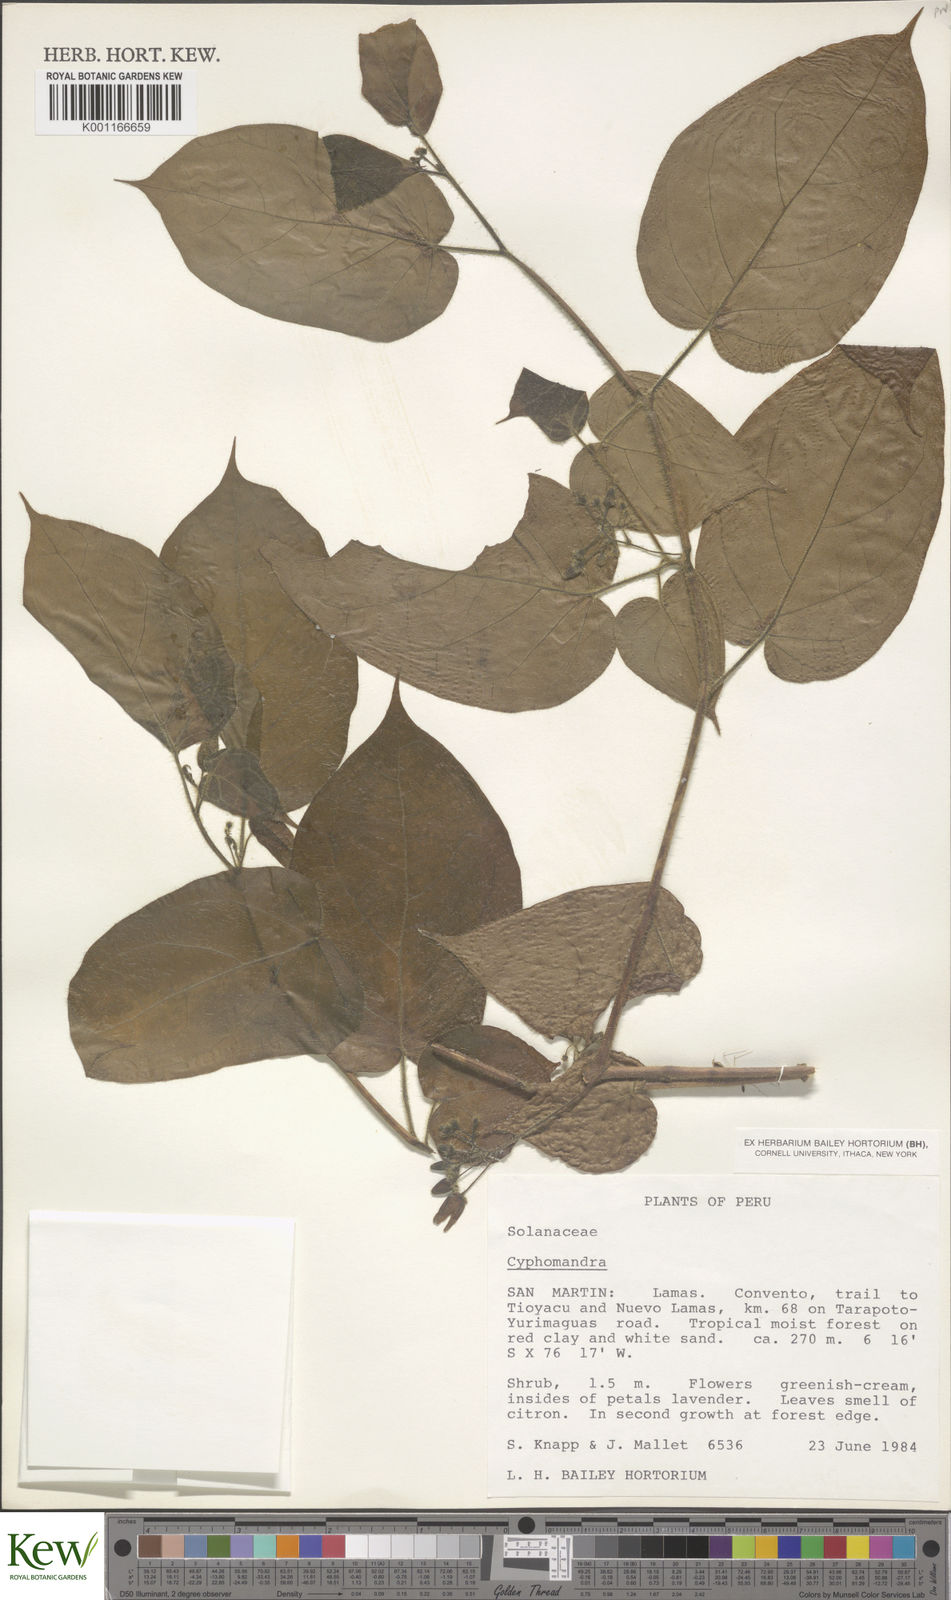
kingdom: Plantae
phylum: Tracheophyta
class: Magnoliopsida
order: Solanales
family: Solanaceae
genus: Solanum
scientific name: Solanum
